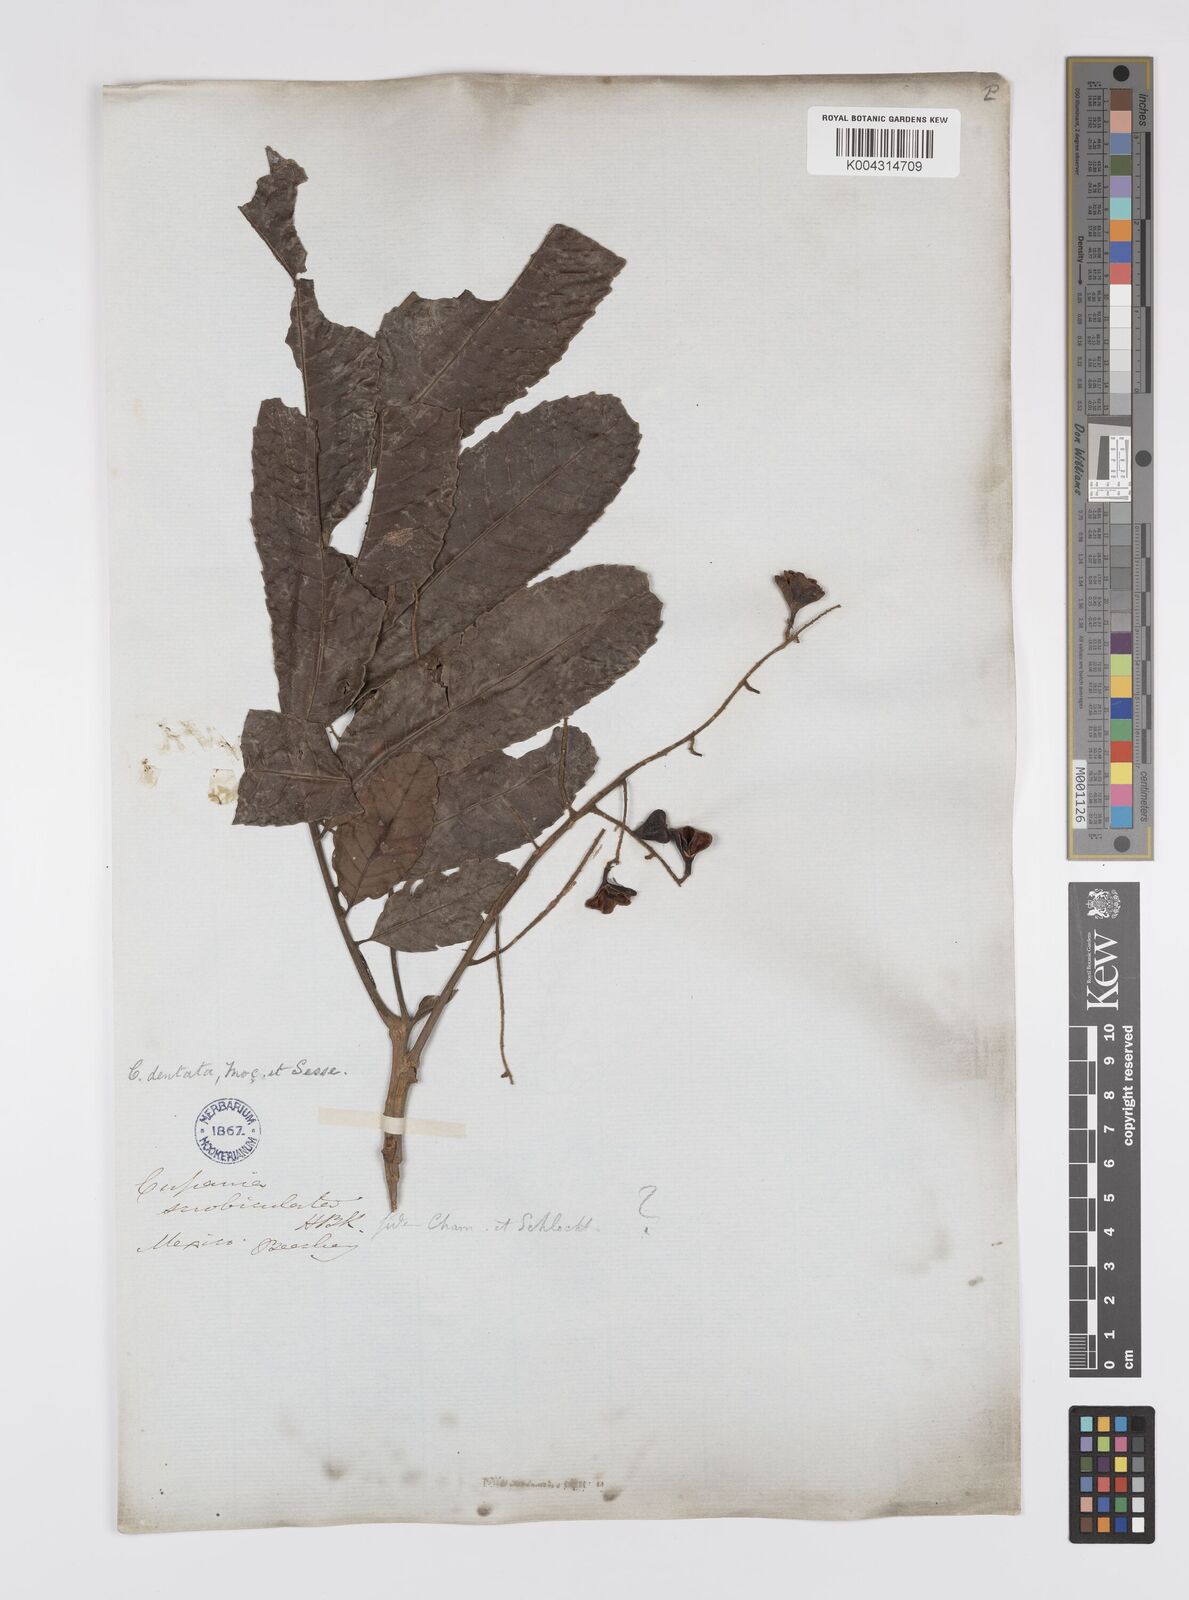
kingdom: Plantae
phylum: Tracheophyta
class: Magnoliopsida
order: Sapindales
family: Sapindaceae
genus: Cupania
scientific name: Cupania dentata
